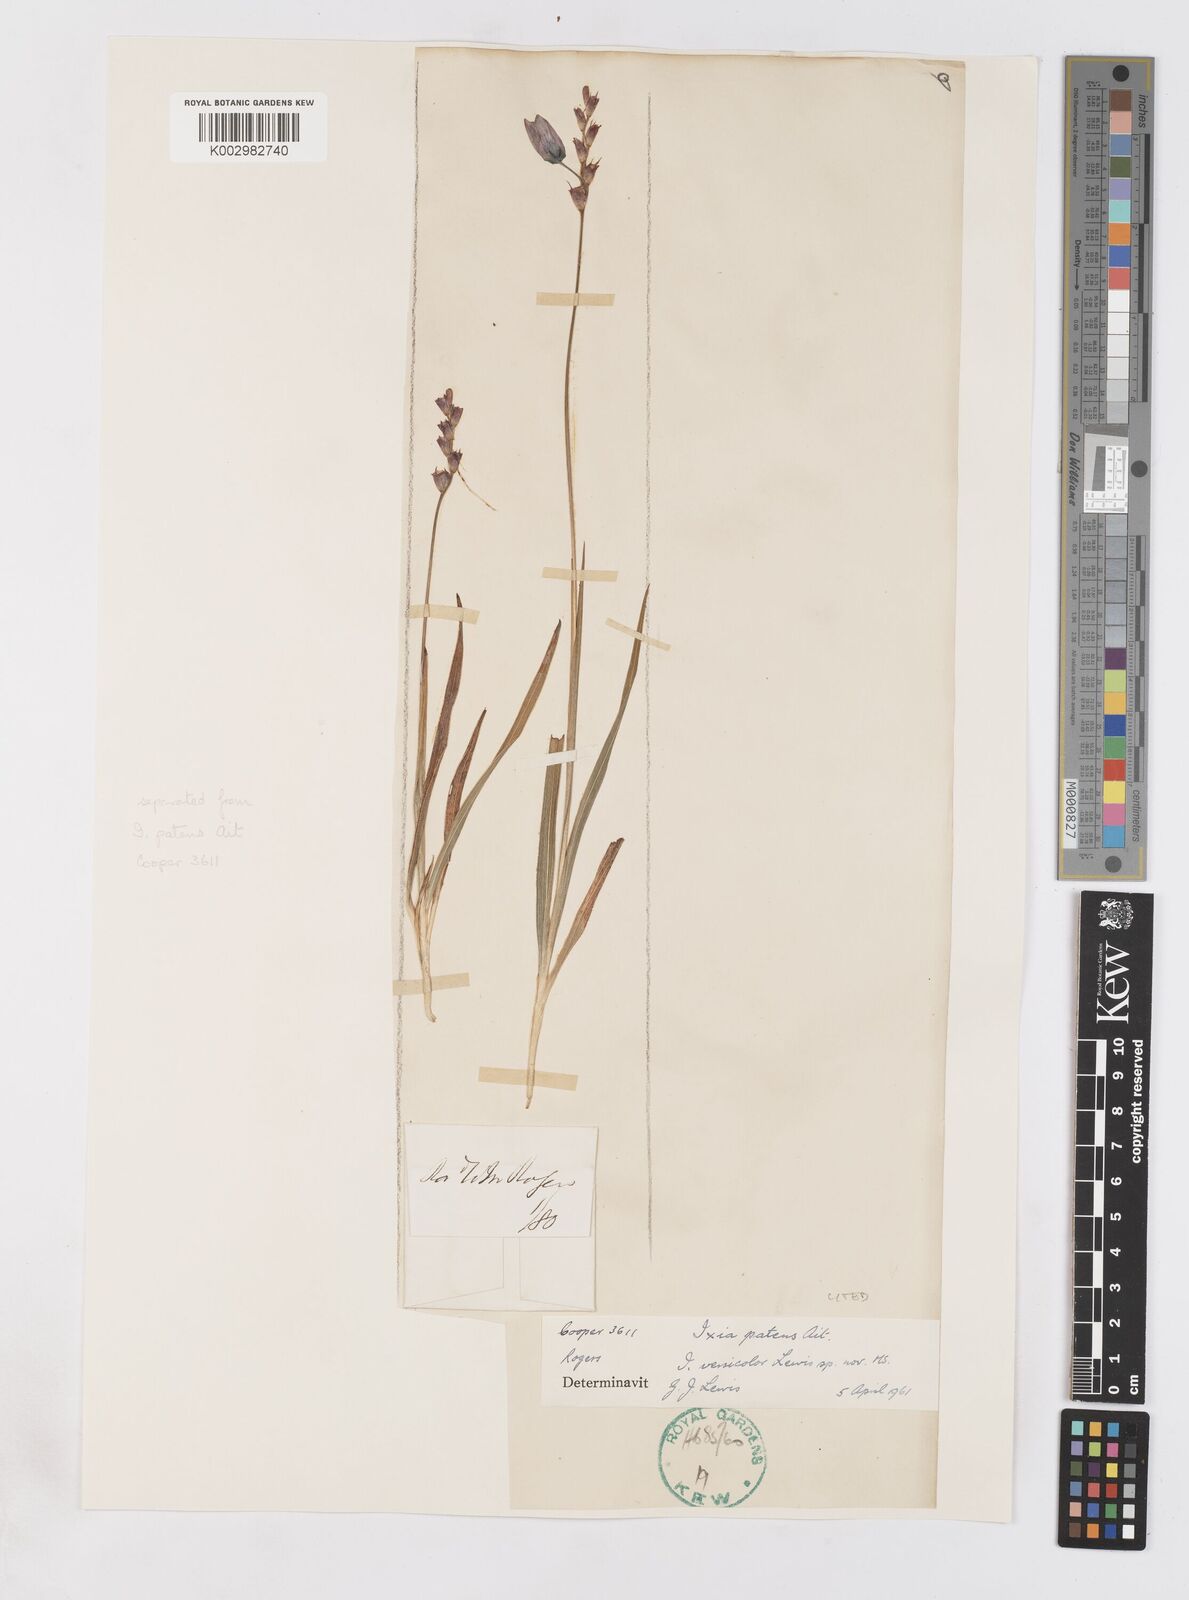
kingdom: Plantae
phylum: Tracheophyta
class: Liliopsida
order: Asparagales
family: Iridaceae
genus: Ixia
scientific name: Ixia versicolor
